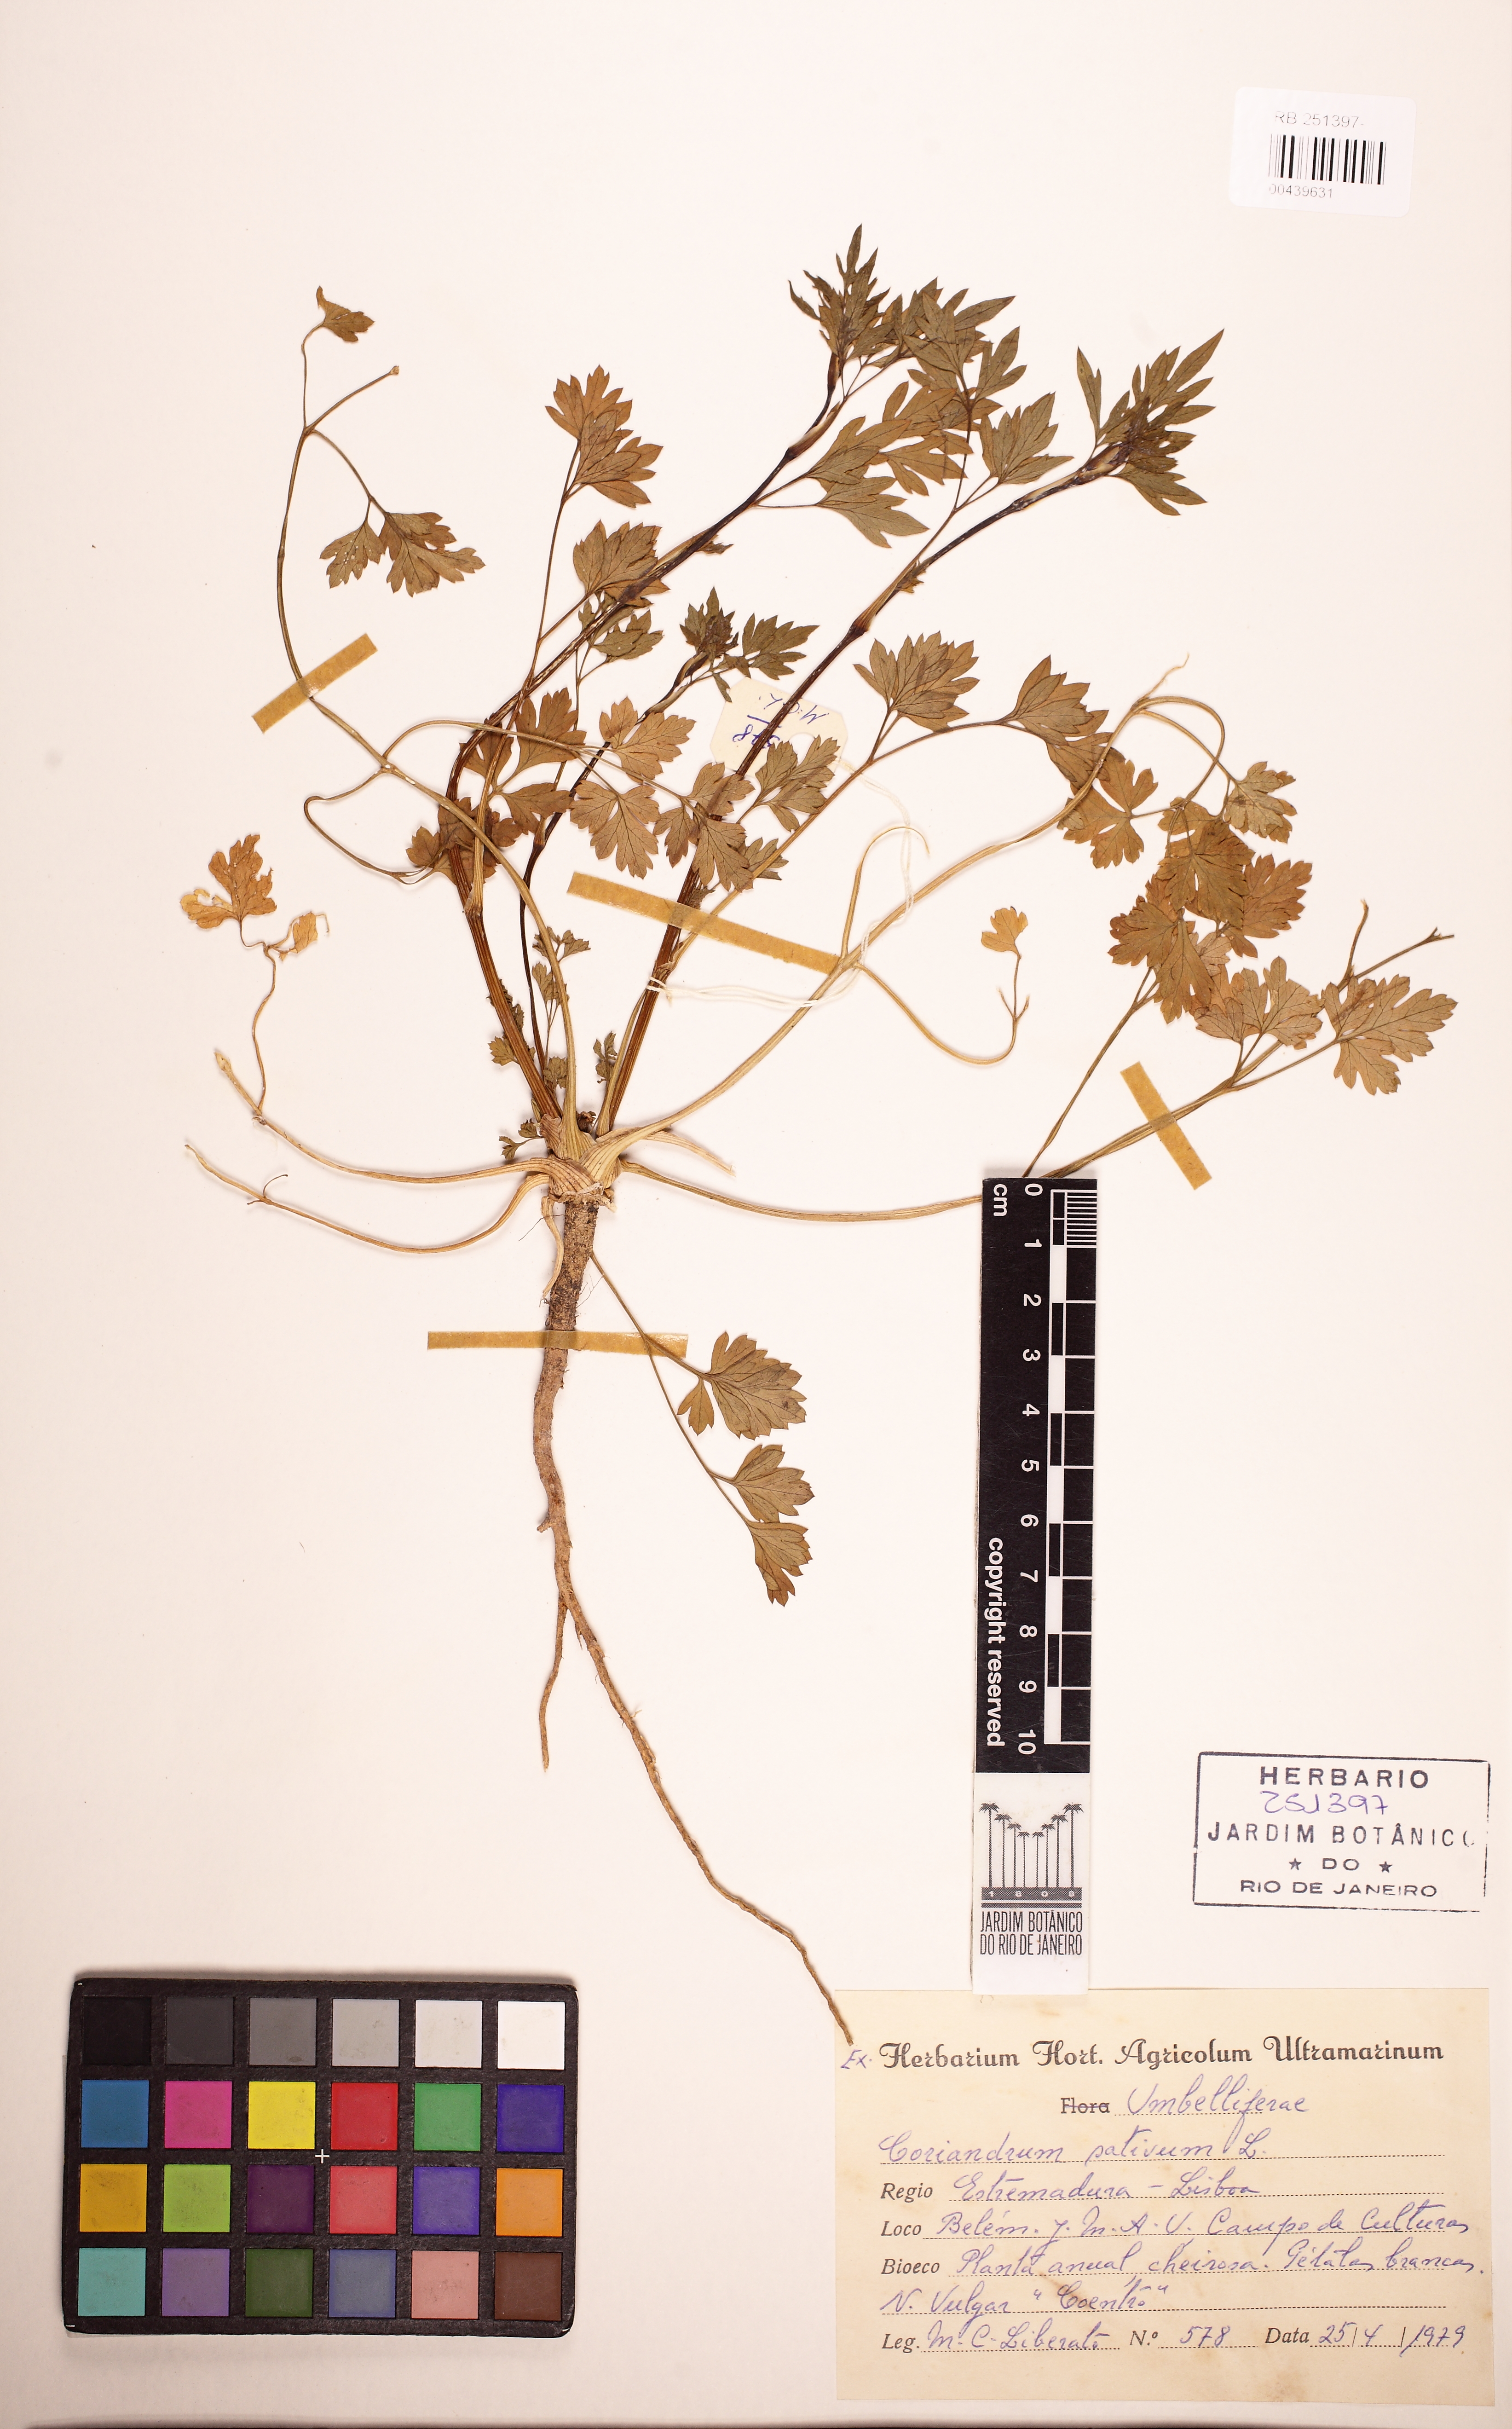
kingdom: Plantae
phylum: Tracheophyta
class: Magnoliopsida
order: Apiales
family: Apiaceae
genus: Coriandrum
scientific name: Coriandrum sativum
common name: Coriander
